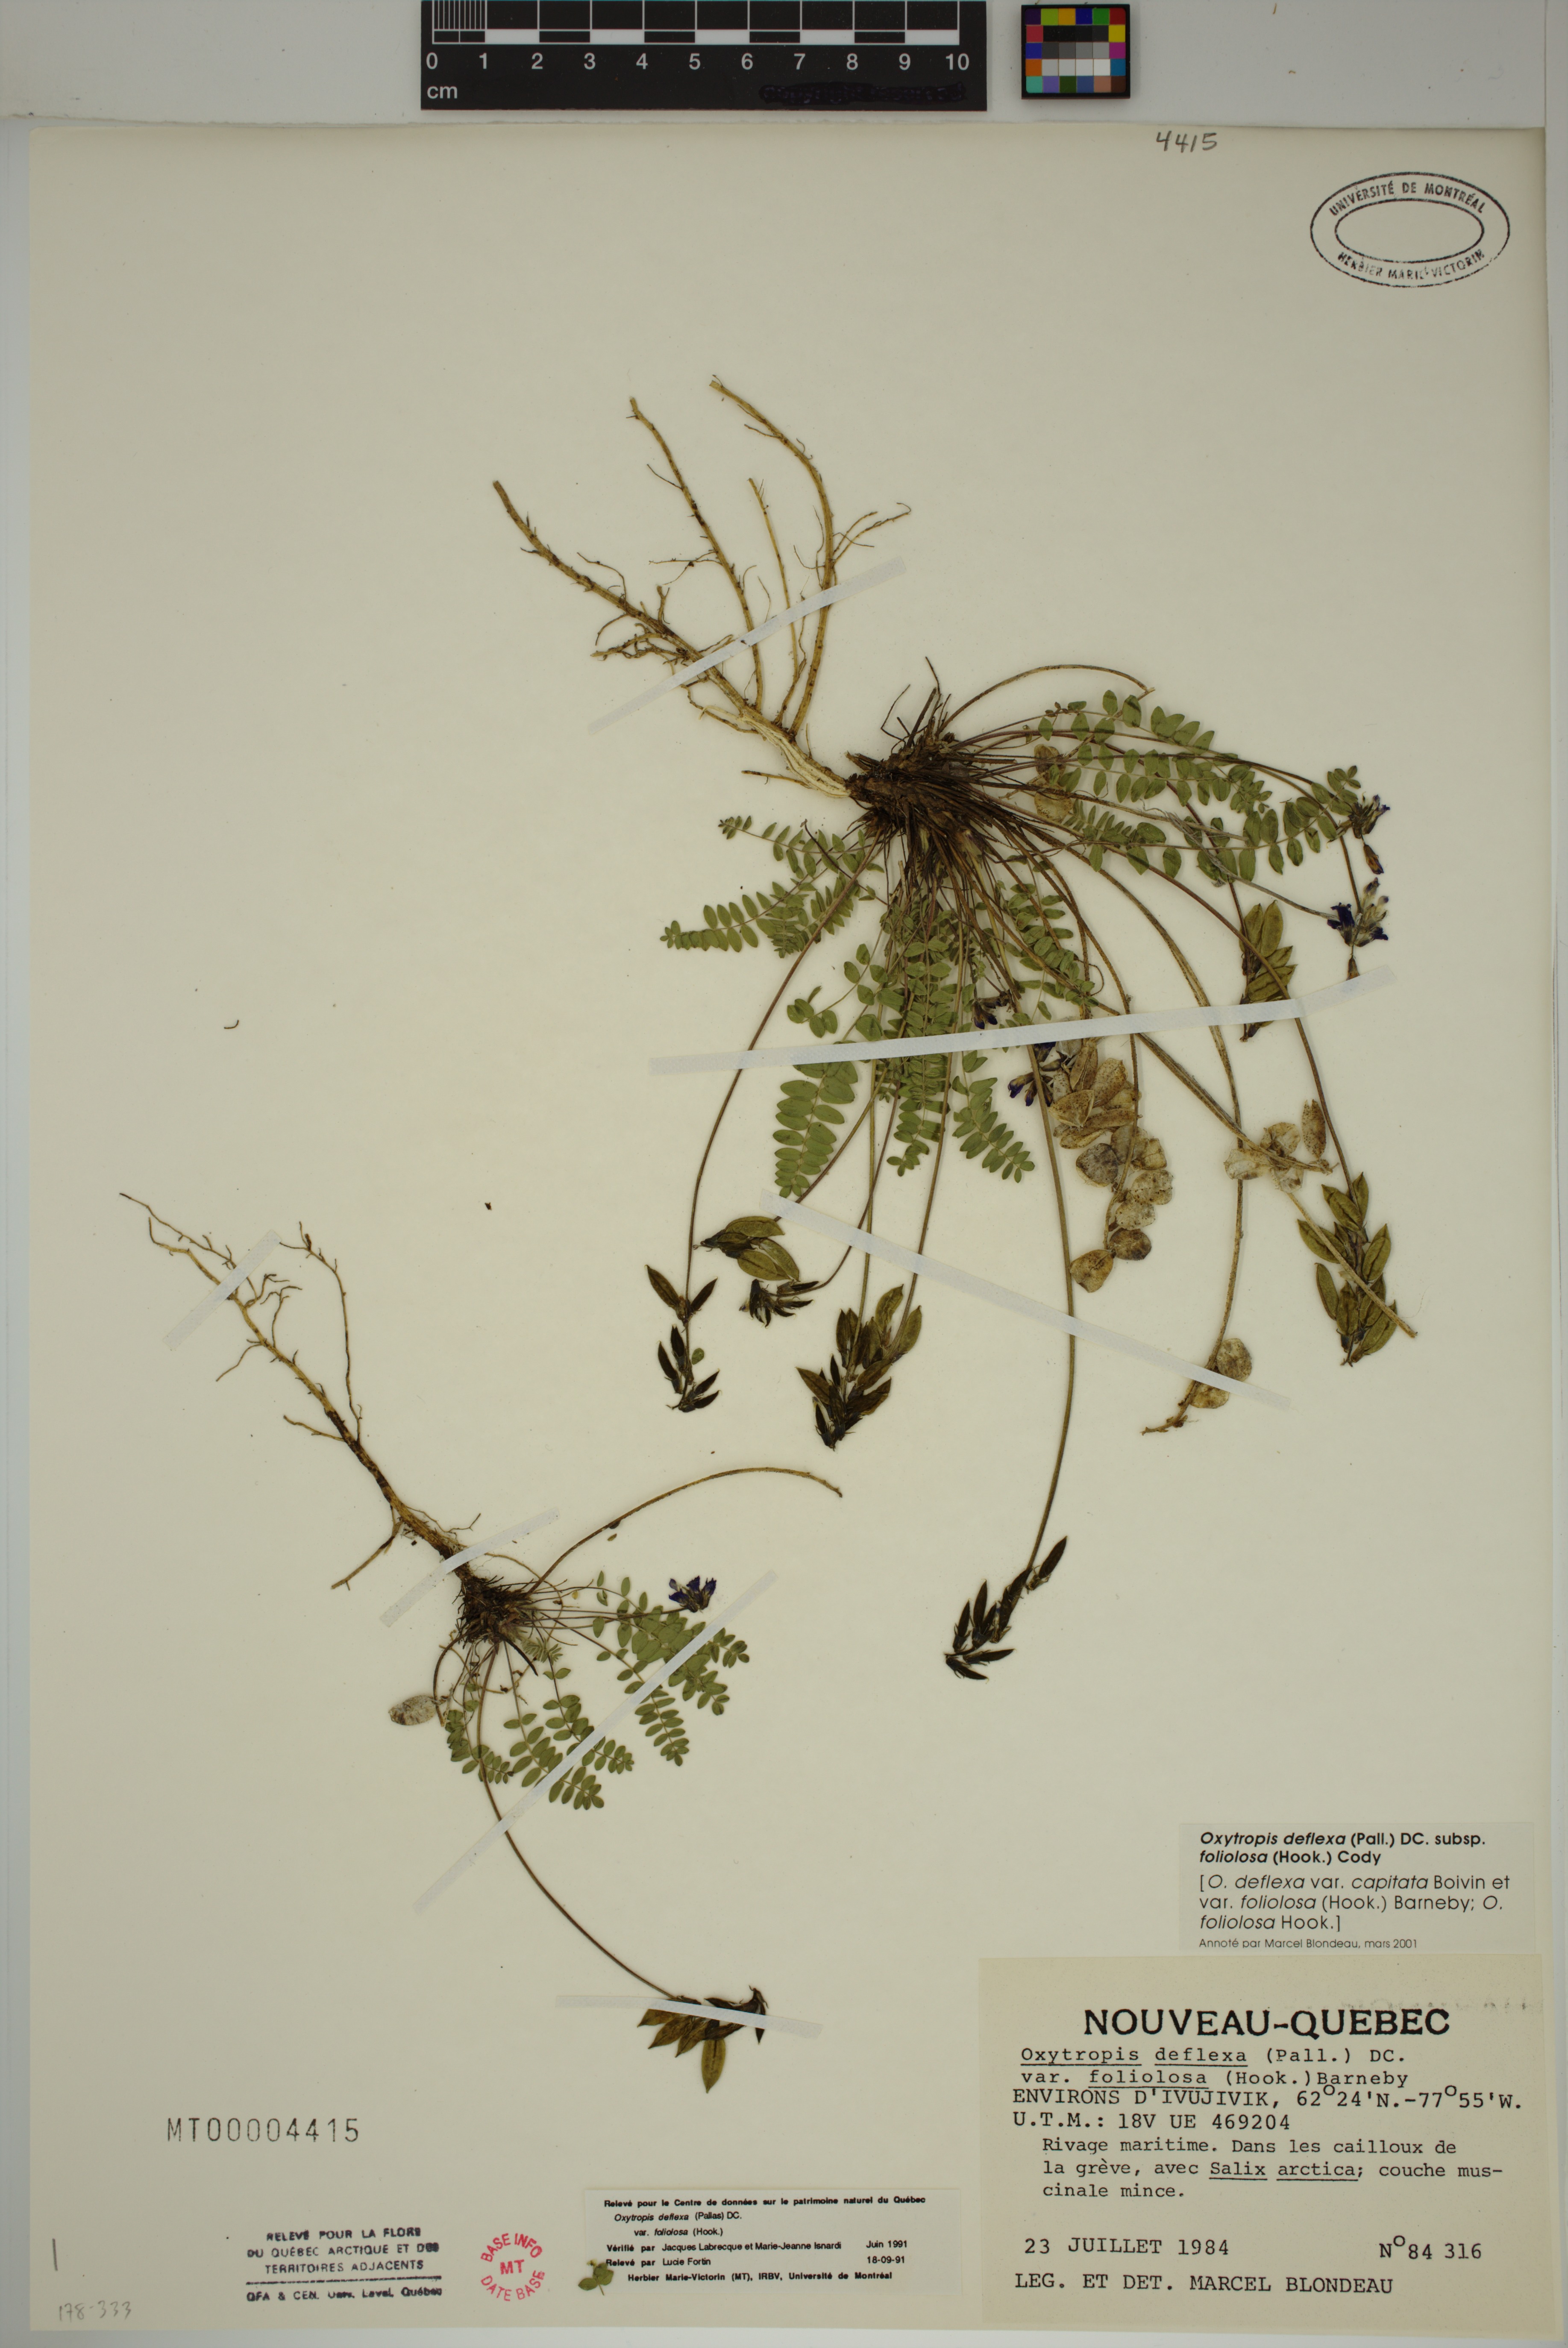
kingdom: Plantae
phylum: Tracheophyta
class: Magnoliopsida
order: Fabales
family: Fabaceae
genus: Oxytropis
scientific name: Oxytropis deflexa
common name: Stemmed oxytrope
